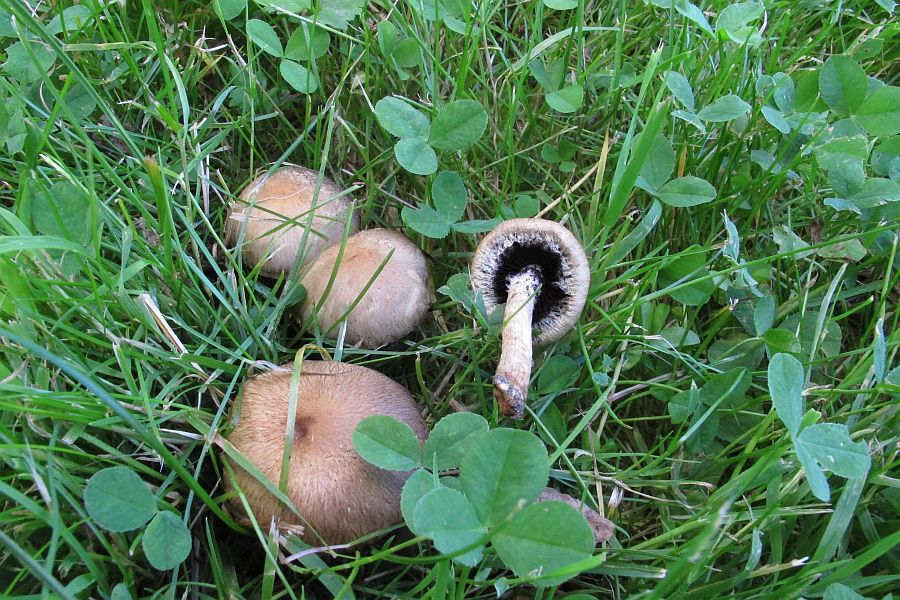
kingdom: Fungi
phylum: Basidiomycota
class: Agaricomycetes
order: Agaricales
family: Psathyrellaceae
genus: Lacrymaria
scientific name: Lacrymaria lacrymabunda
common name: grædende mørkhat
